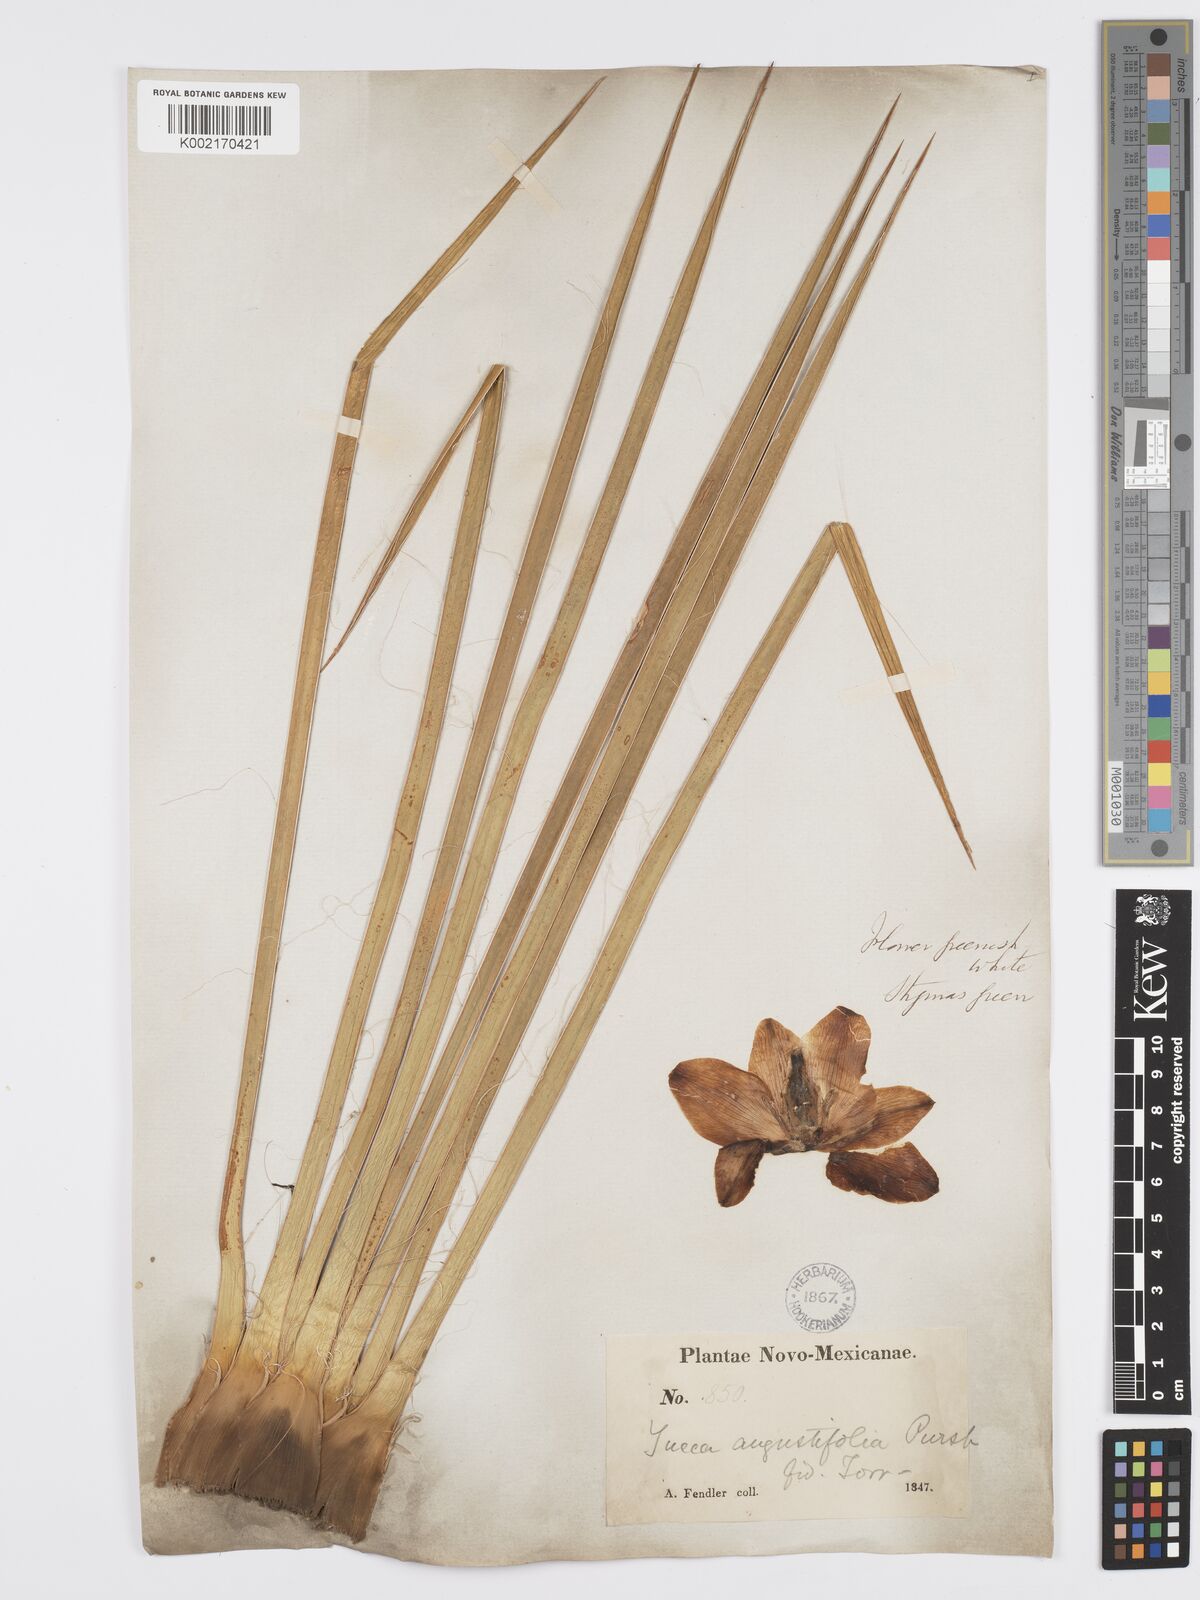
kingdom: Plantae
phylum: Tracheophyta
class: Liliopsida
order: Asparagales
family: Asparagaceae
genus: Yucca
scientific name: Yucca glauca
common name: Great plains yucca
